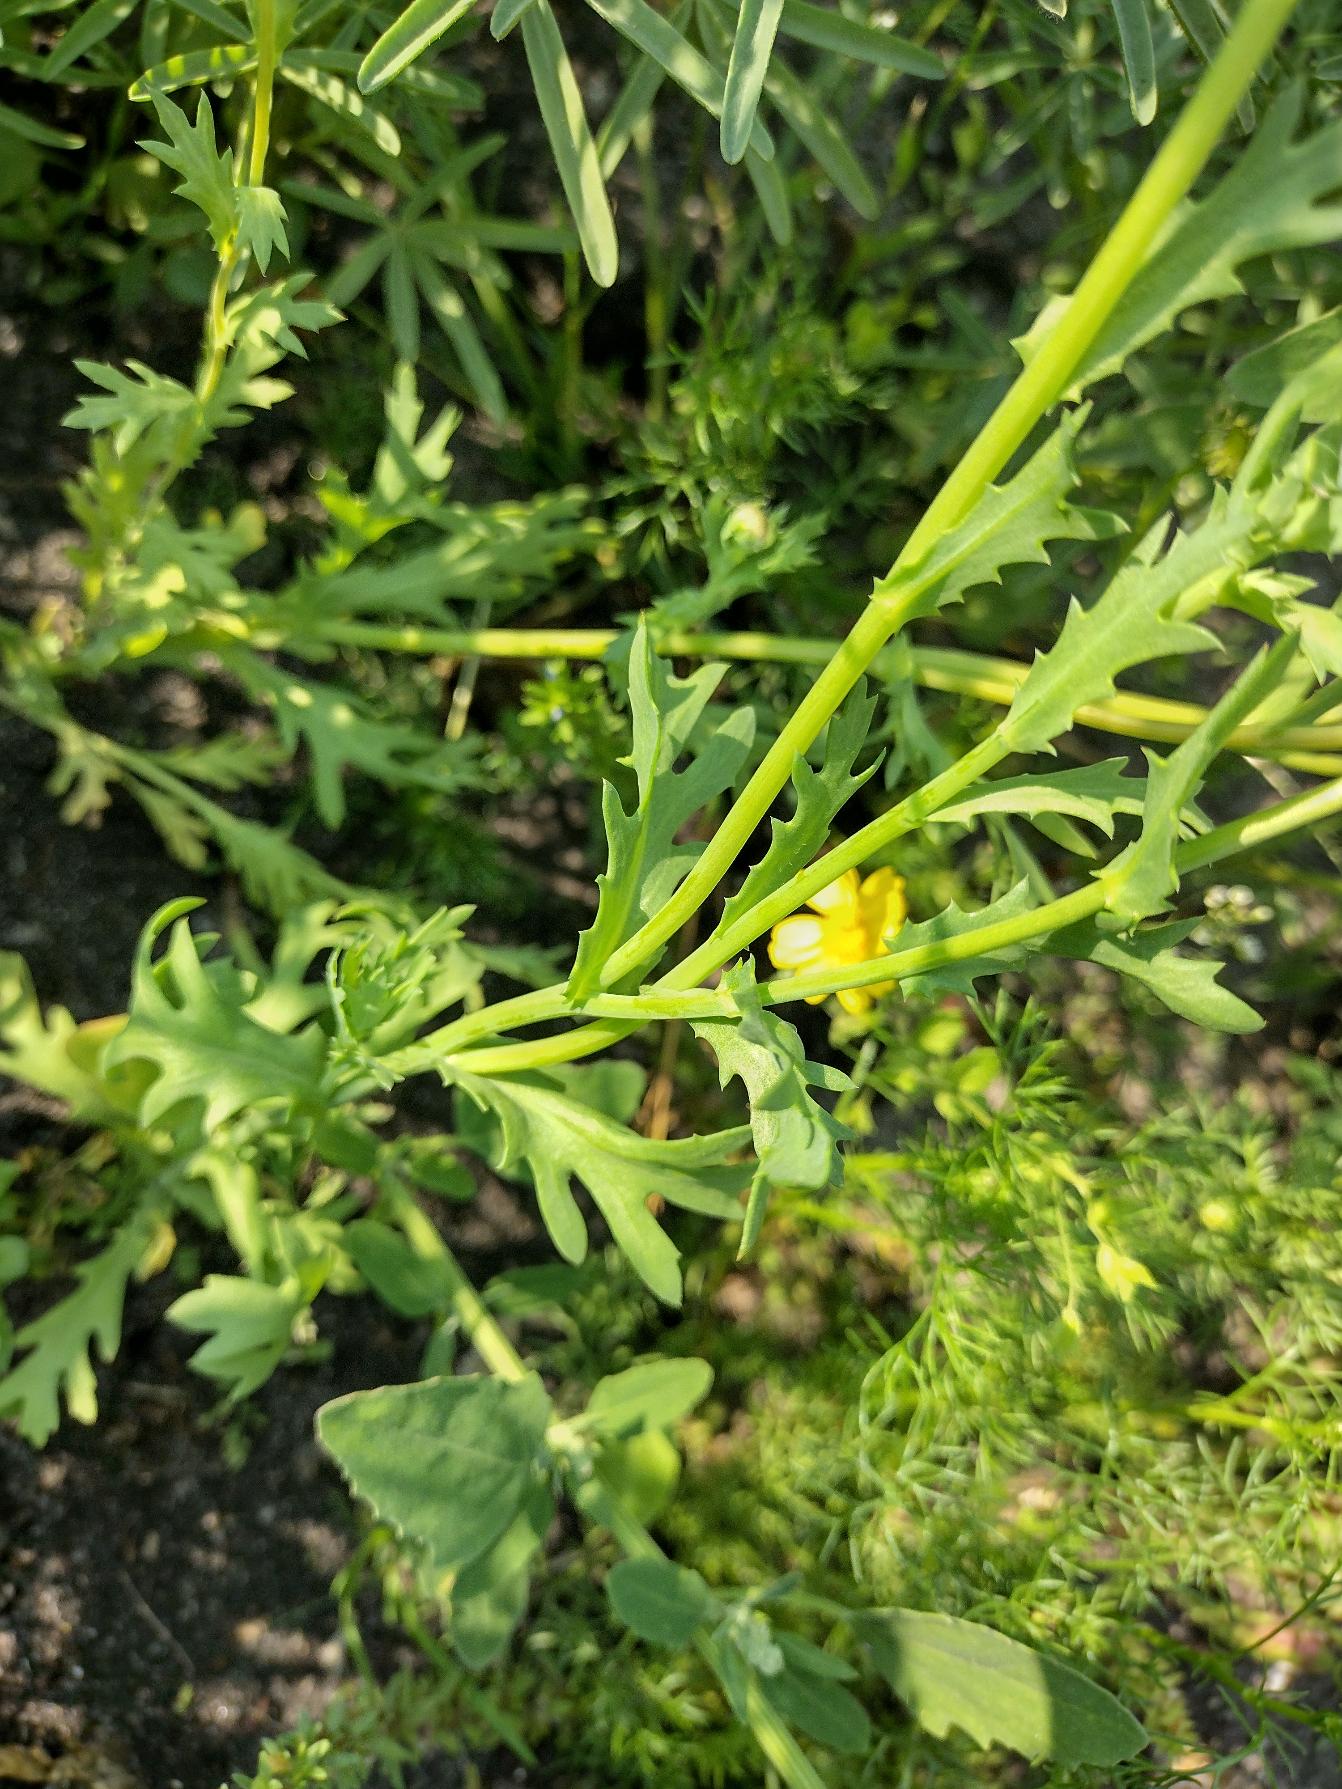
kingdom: Plantae
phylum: Tracheophyta
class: Magnoliopsida
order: Asterales
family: Asteraceae
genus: Glebionis
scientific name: Glebionis segetum
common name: Gul okseøje
